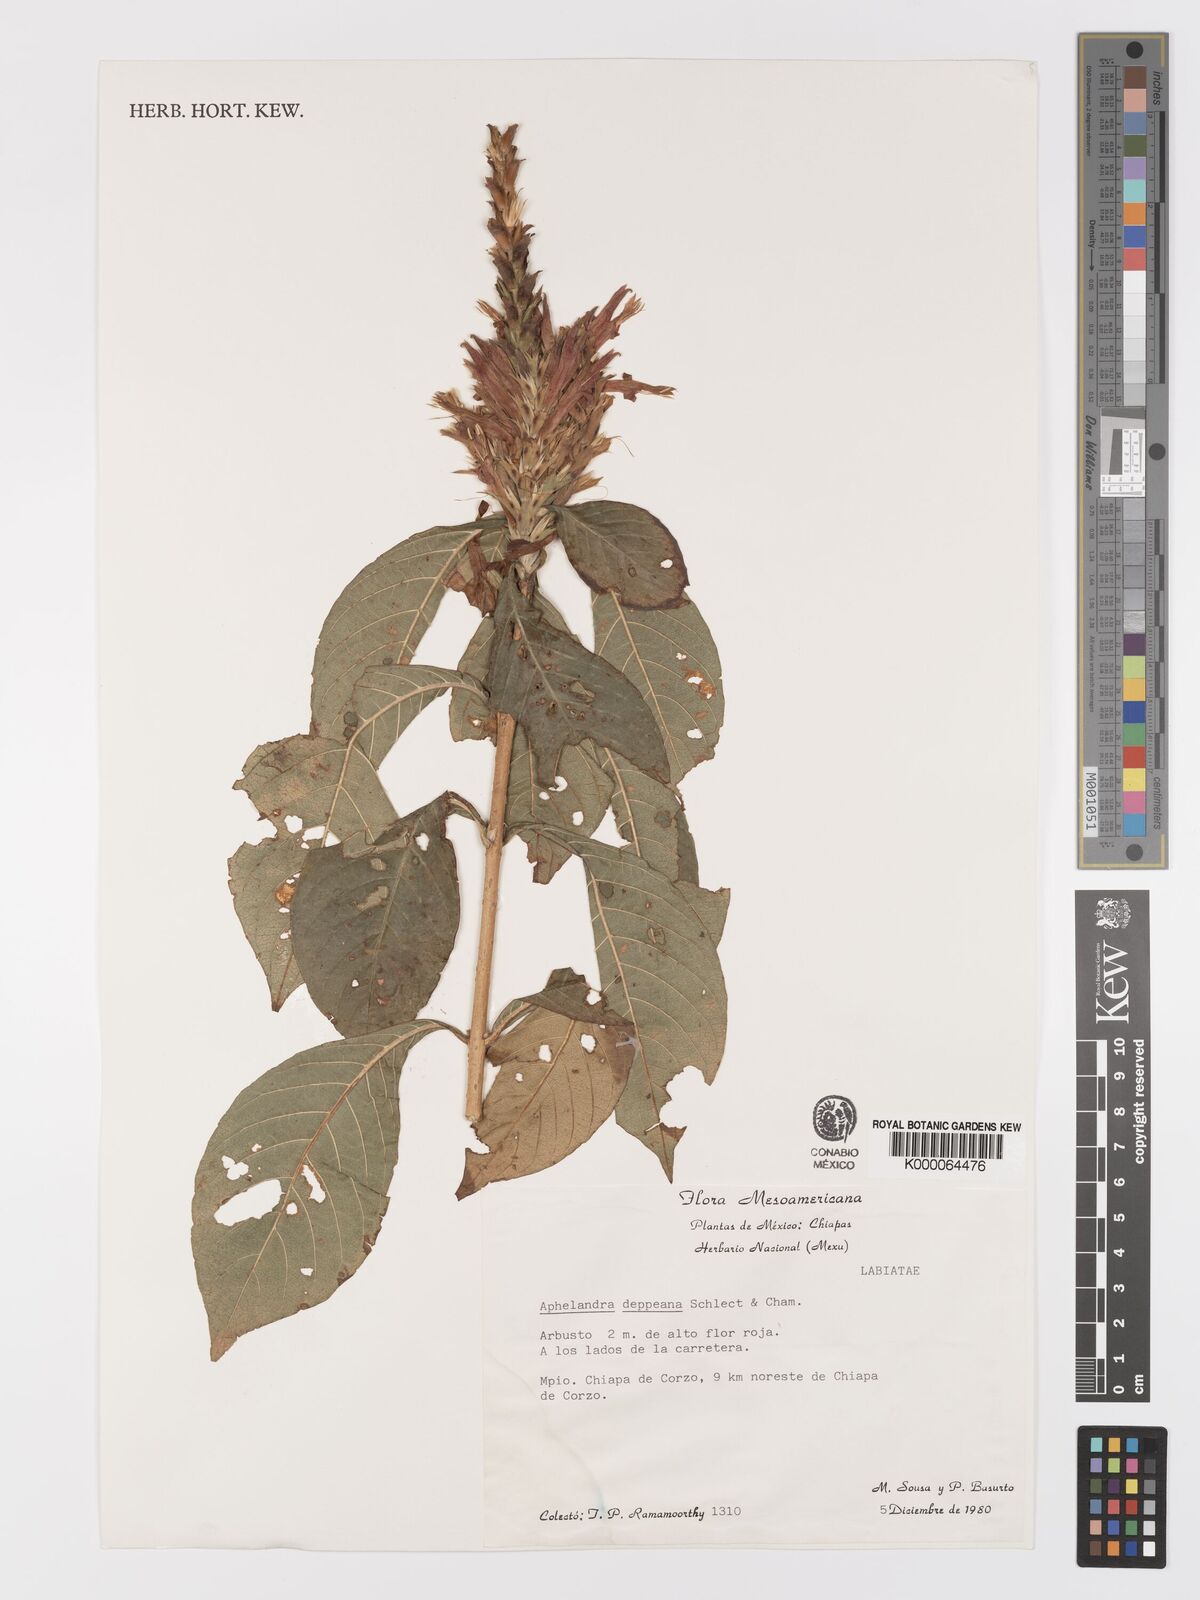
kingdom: Plantae
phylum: Tracheophyta
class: Magnoliopsida
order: Lamiales
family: Acanthaceae
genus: Aphelandra
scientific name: Aphelandra scabra
